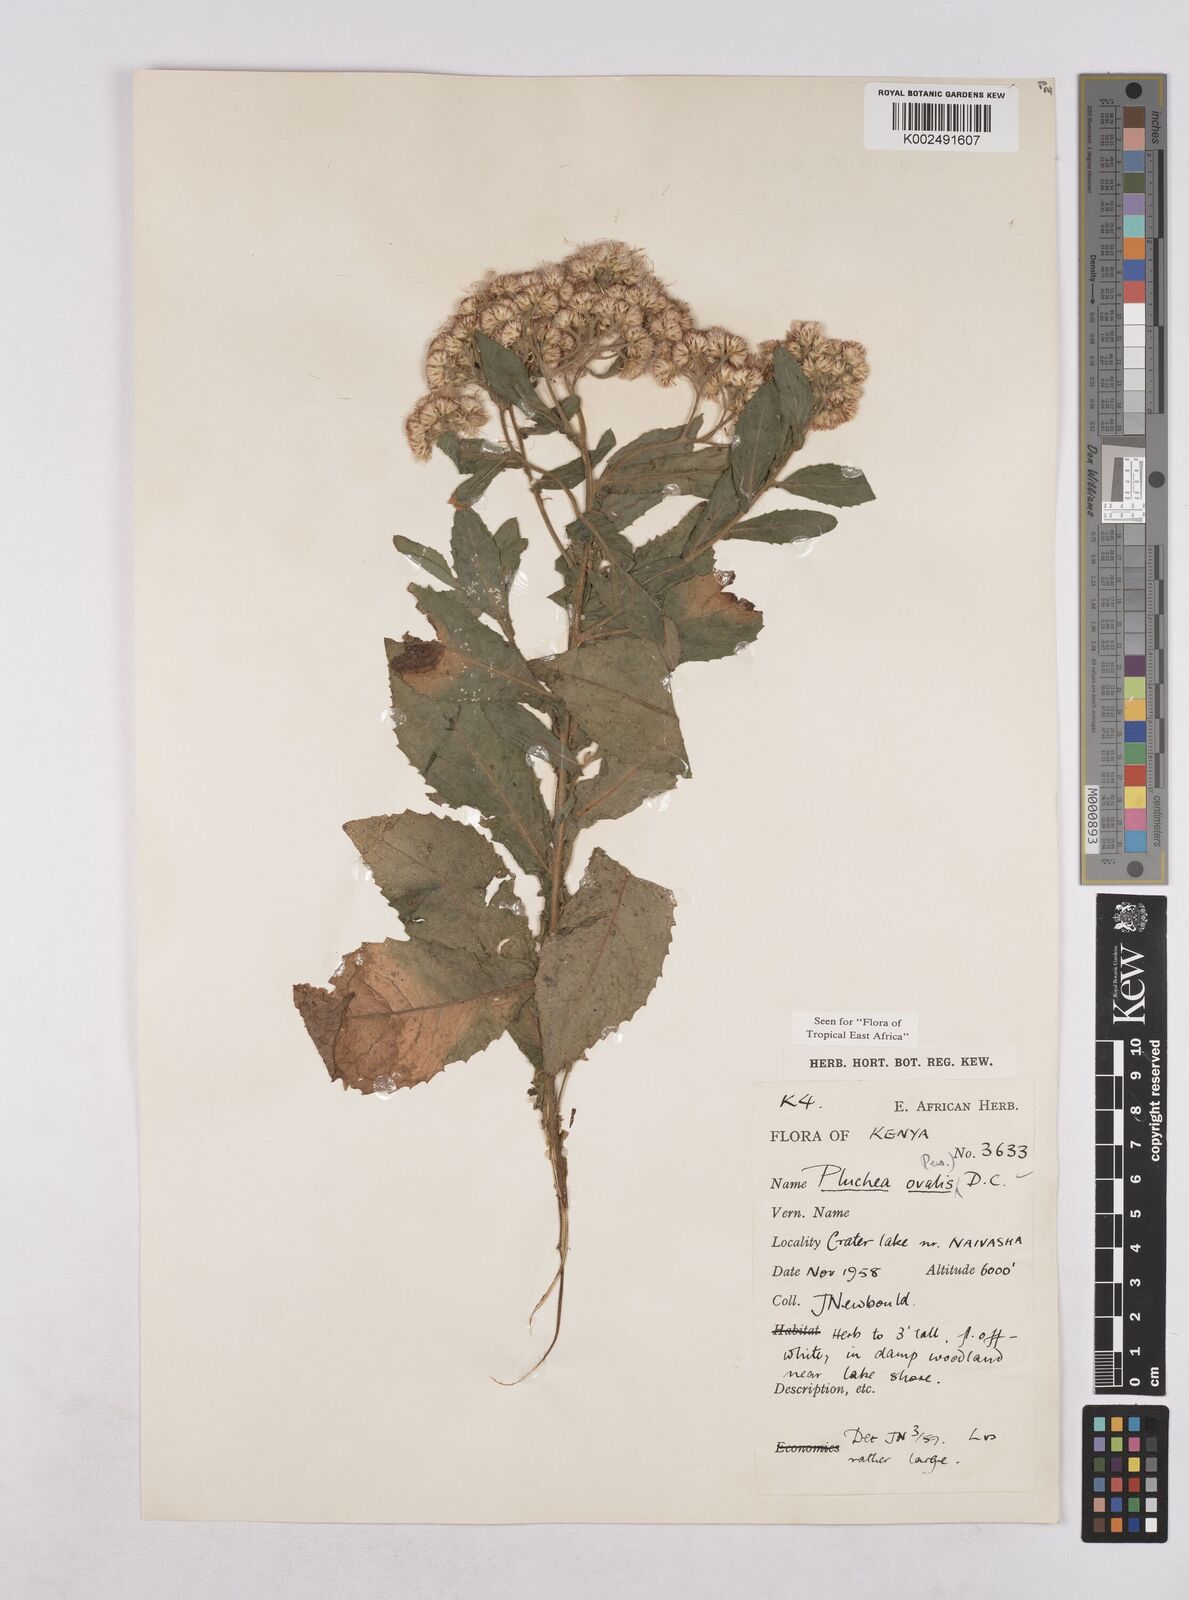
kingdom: Plantae
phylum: Tracheophyta
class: Magnoliopsida
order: Asterales
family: Asteraceae
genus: Pluchea
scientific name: Pluchea ovalis
